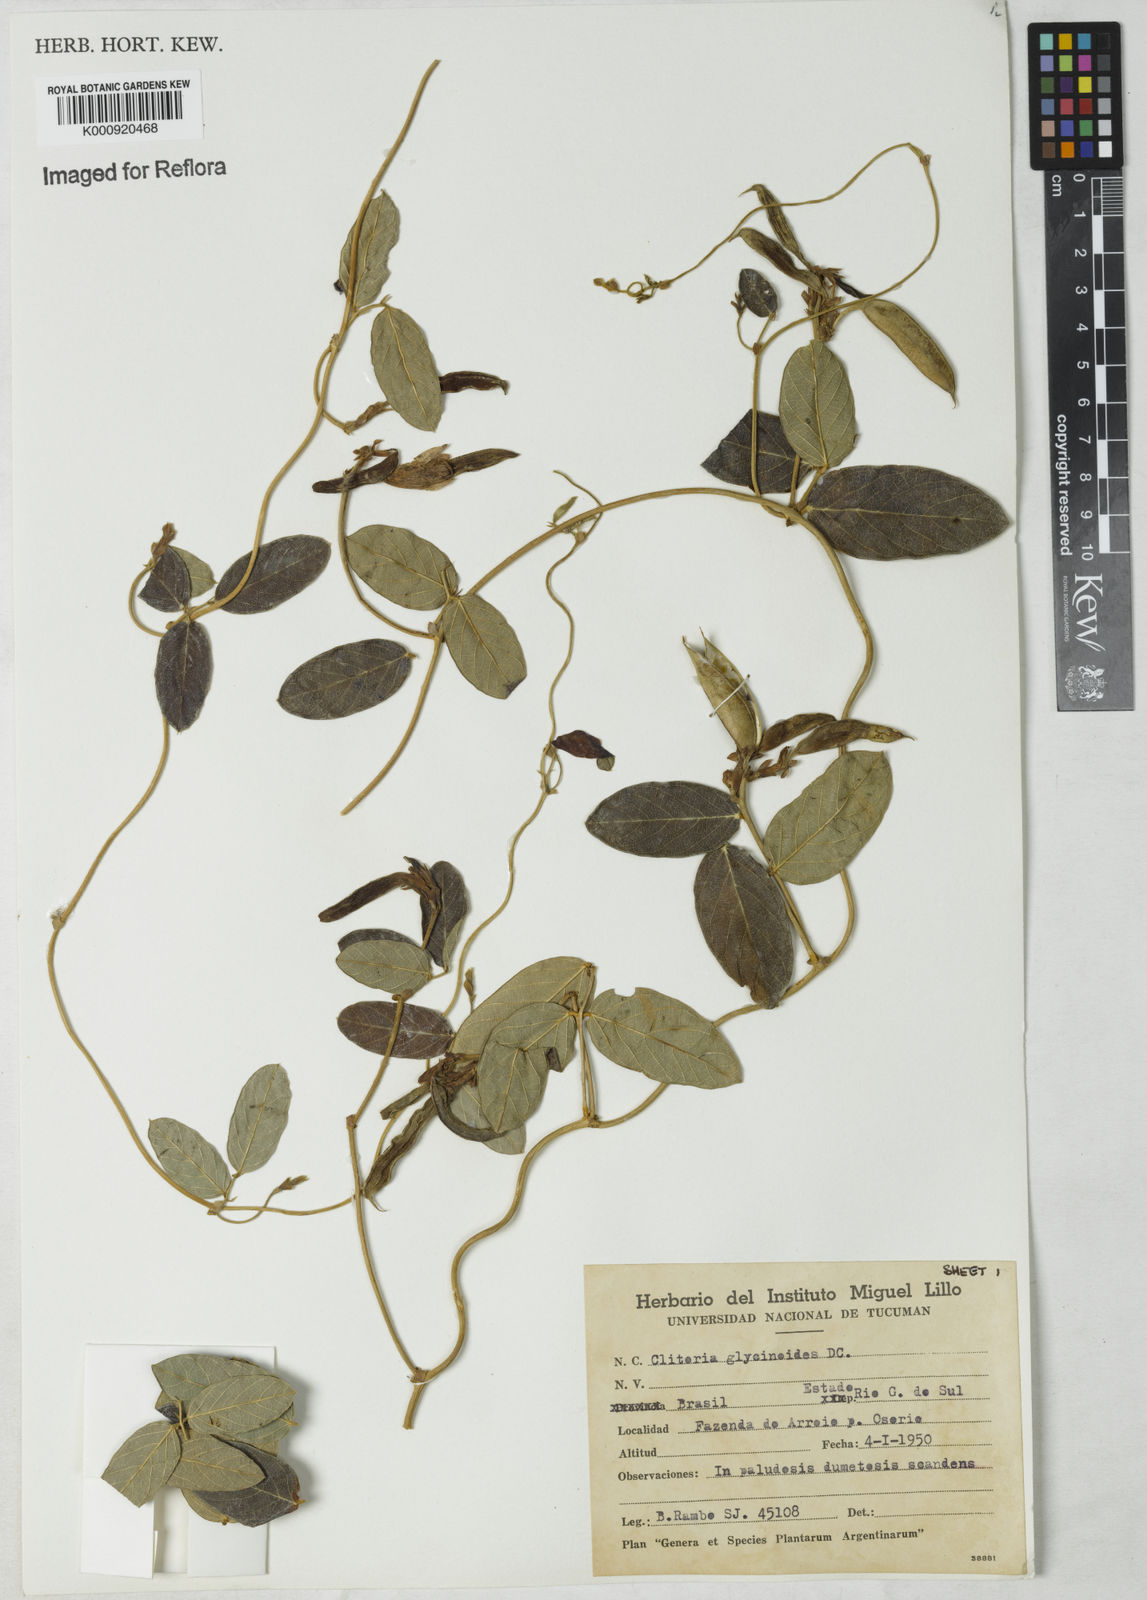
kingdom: Plantae
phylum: Tracheophyta
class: Magnoliopsida
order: Fabales
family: Fabaceae
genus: Clitoria
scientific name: Clitoria
